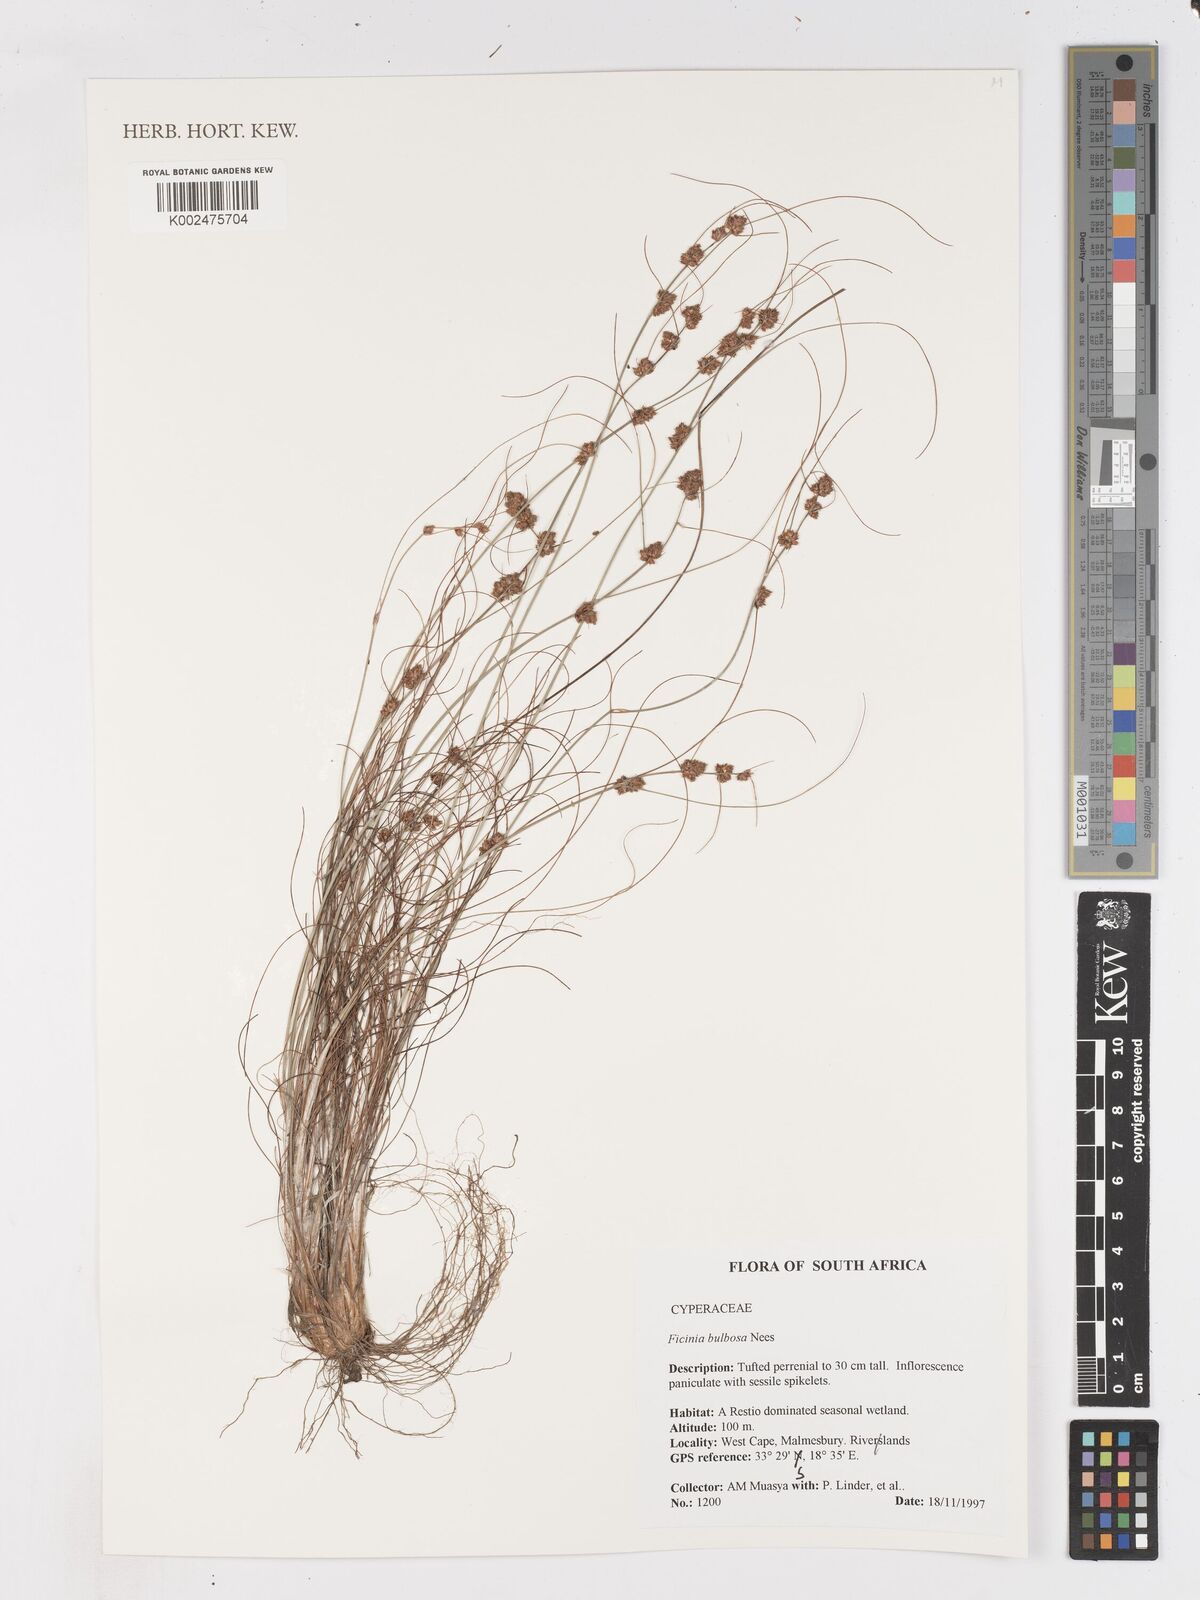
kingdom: Plantae
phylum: Tracheophyta
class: Liliopsida
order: Poales
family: Cyperaceae
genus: Ficinia
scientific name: Ficinia bulbosa
